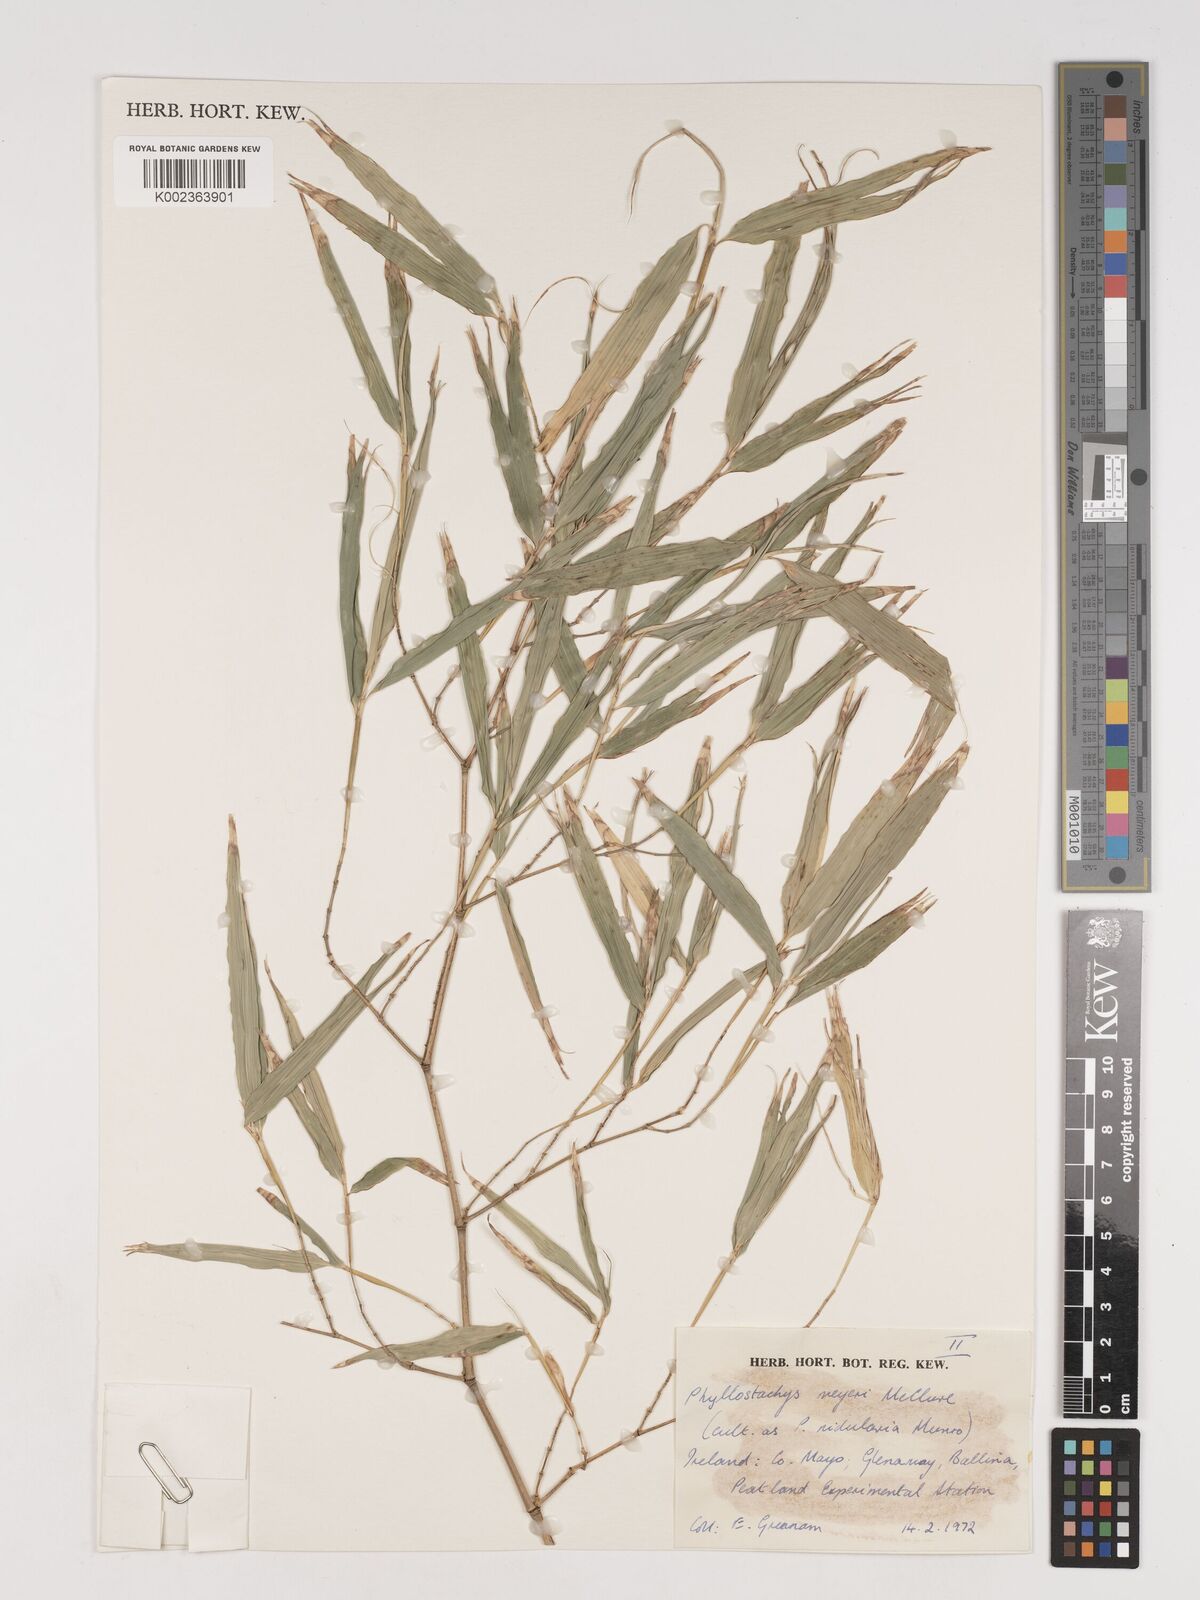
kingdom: Plantae
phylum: Tracheophyta
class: Liliopsida
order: Poales
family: Poaceae
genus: Phyllostachys
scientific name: Phyllostachys meyeri
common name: Meyer's bamboo
